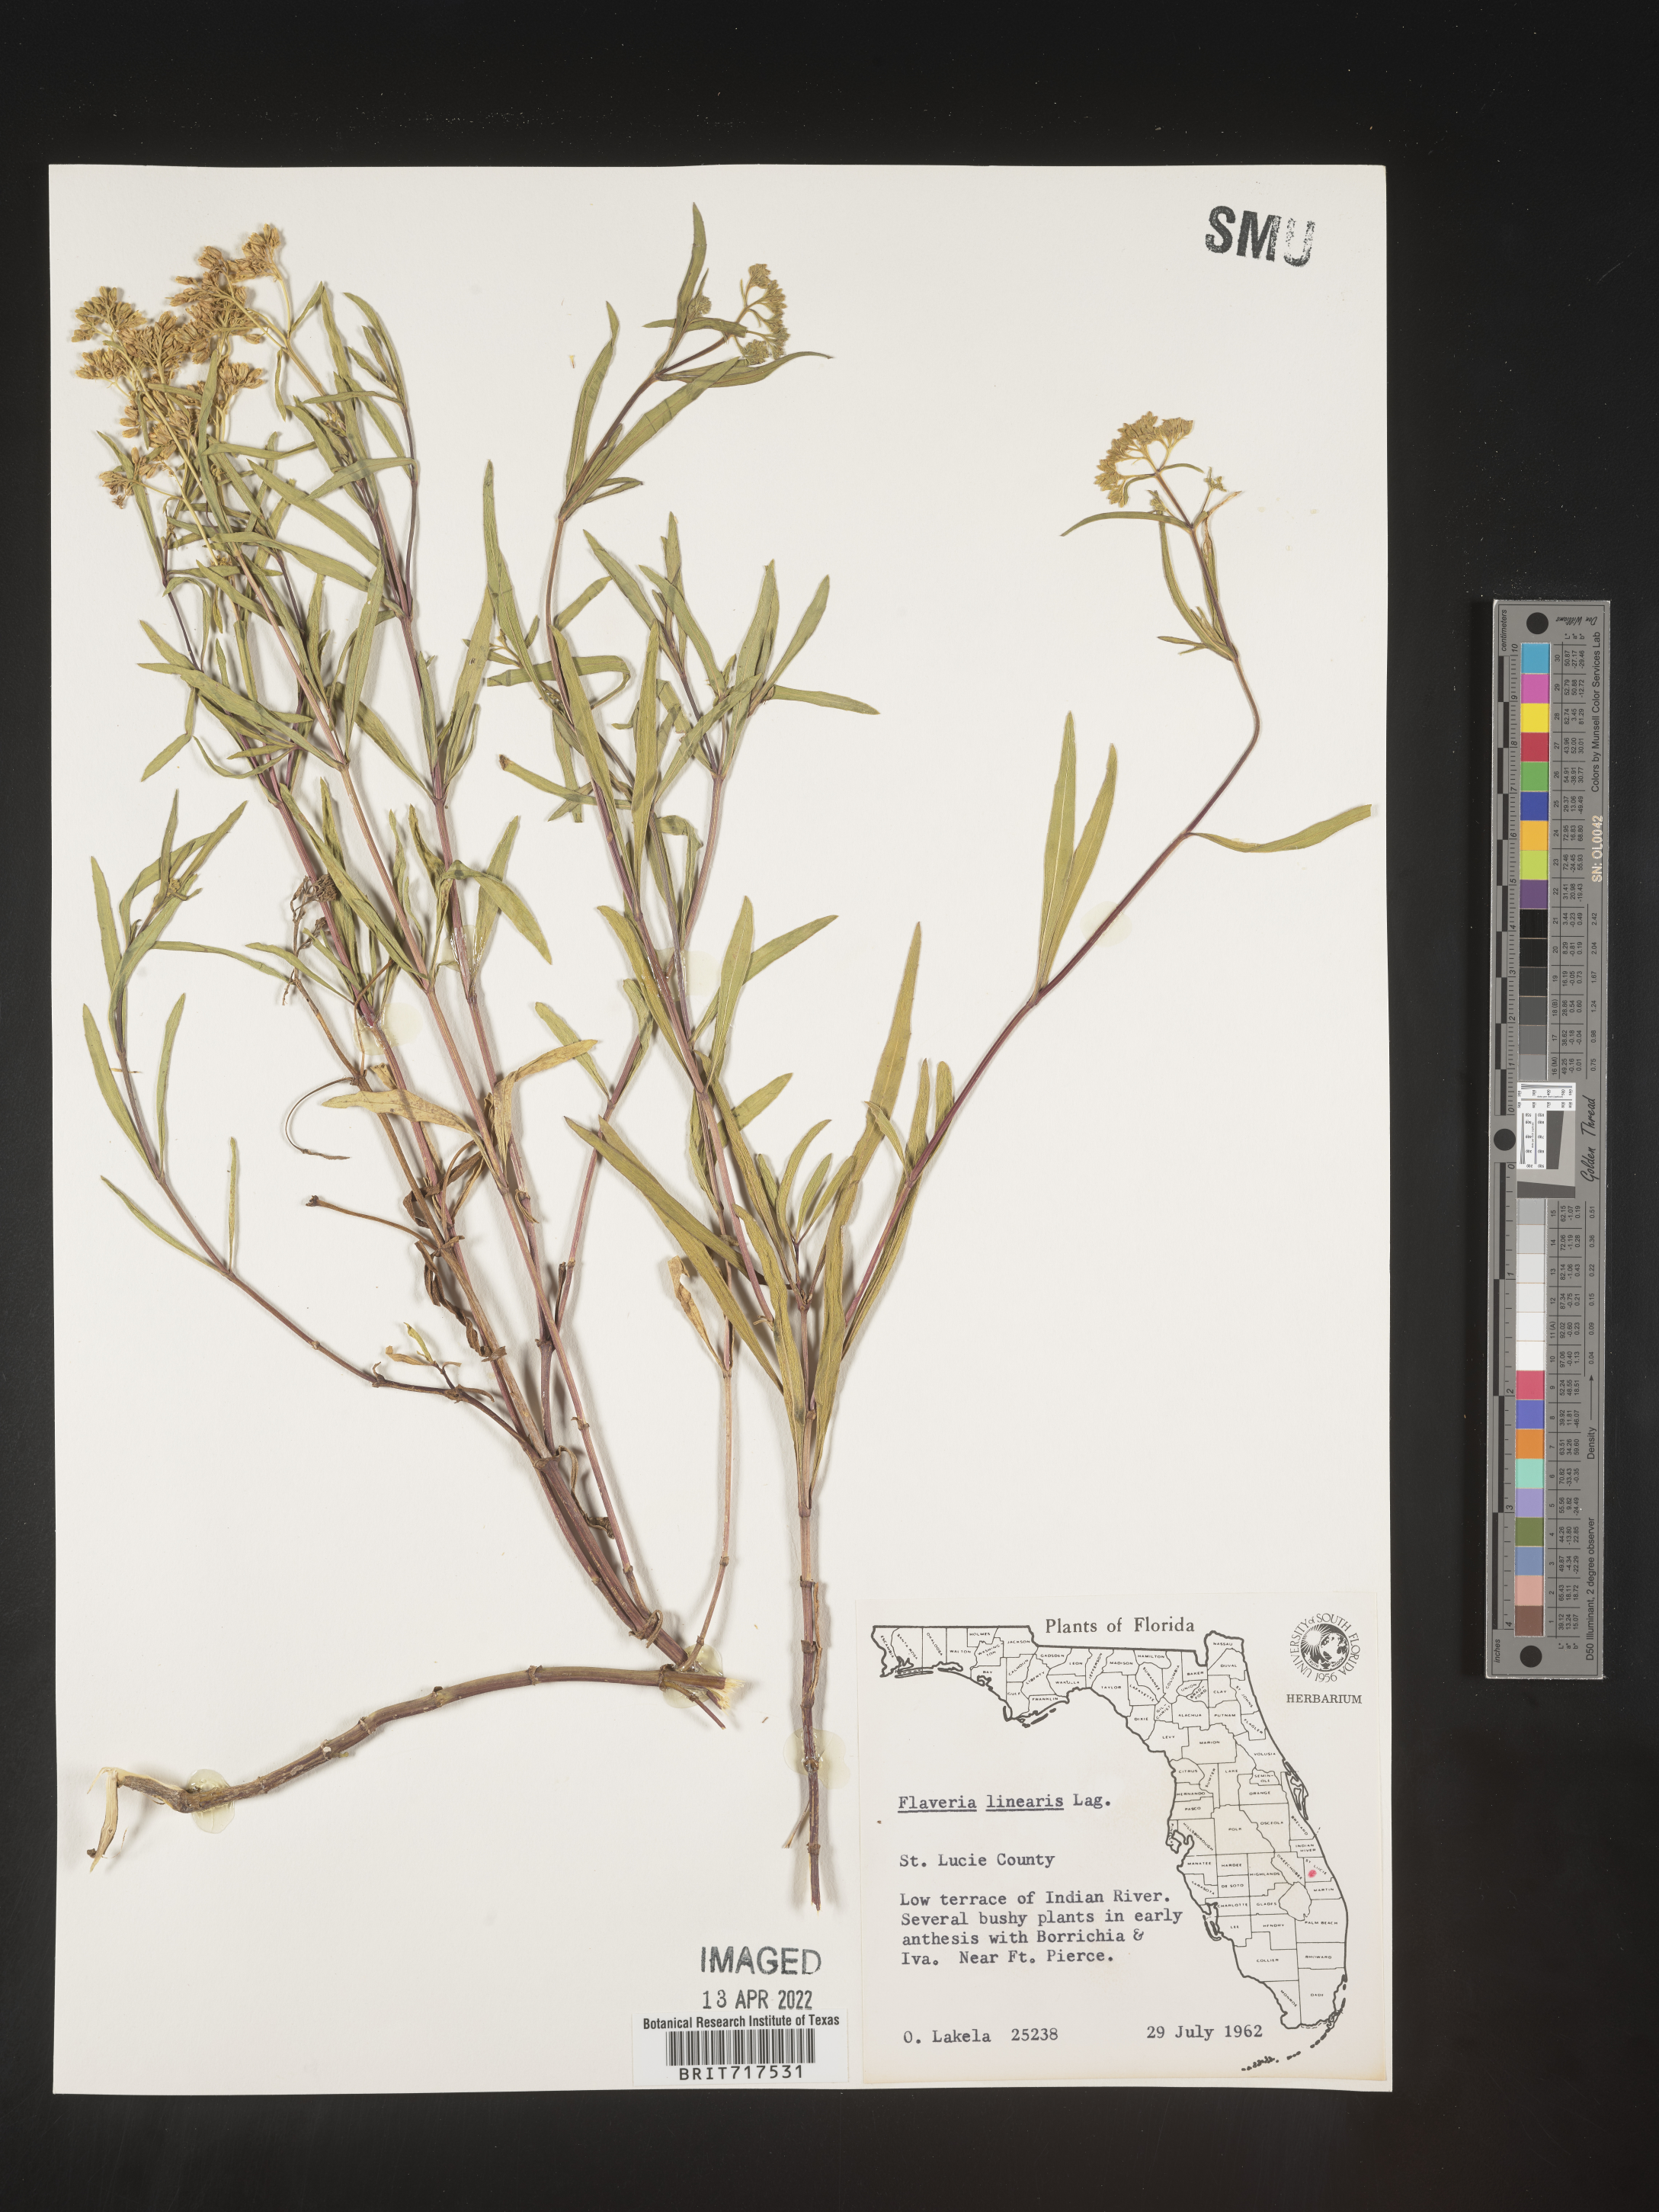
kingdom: Plantae
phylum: Tracheophyta
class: Magnoliopsida
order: Asterales
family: Asteraceae
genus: Flaveria
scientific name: Flaveria linearis
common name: Yellowtop
